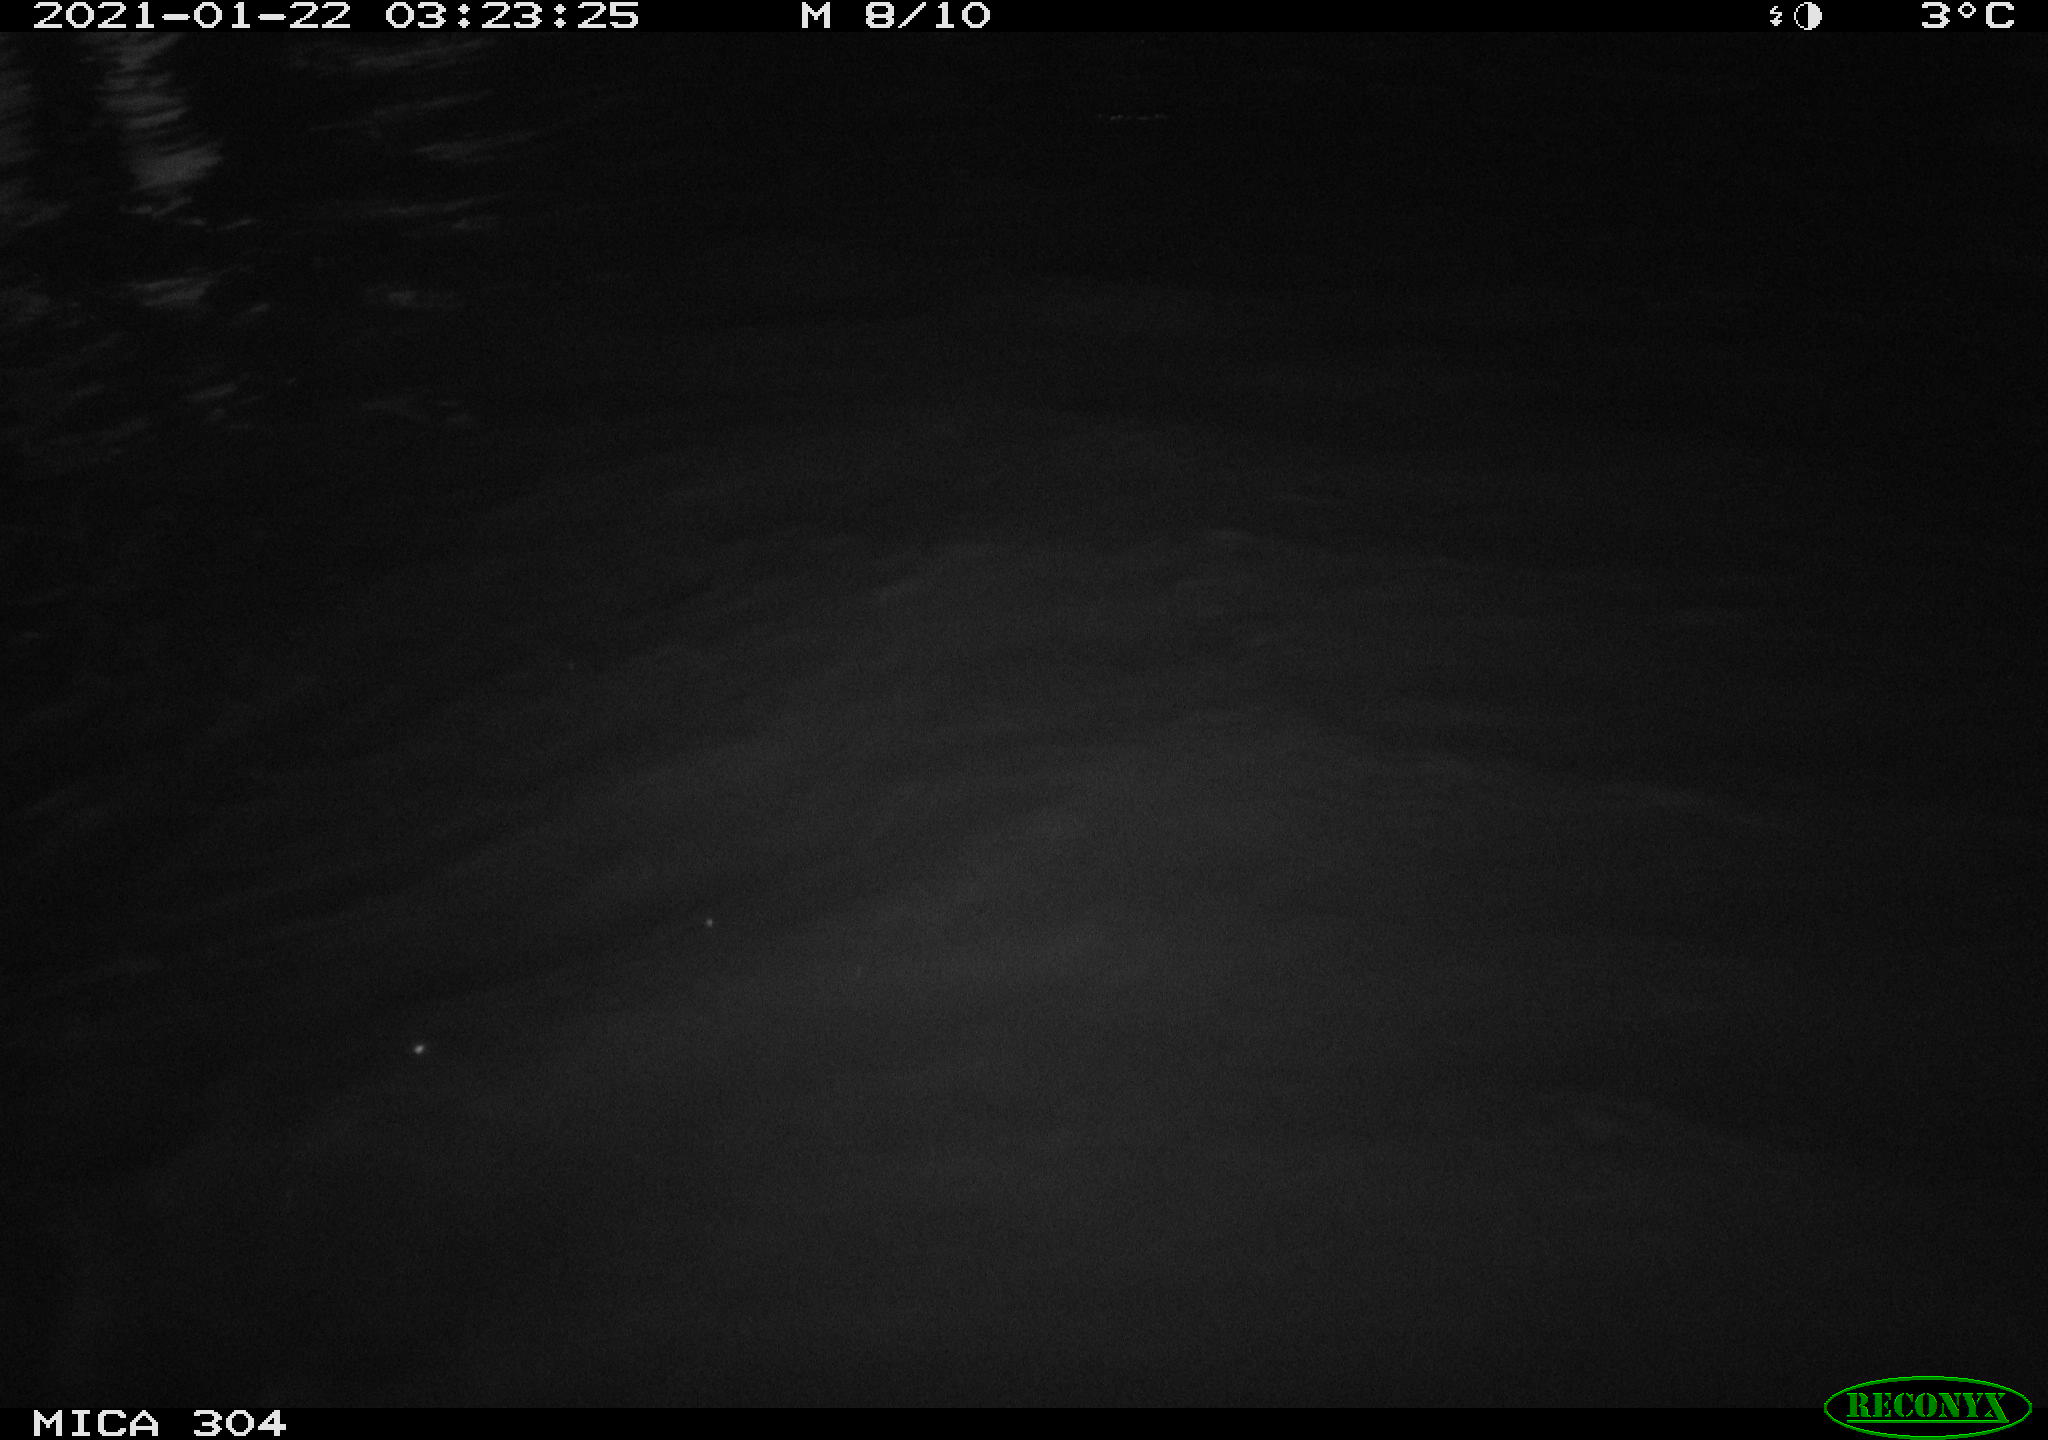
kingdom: Animalia
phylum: Chordata
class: Mammalia
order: Rodentia
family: Cricetidae
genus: Ondatra
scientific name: Ondatra zibethicus
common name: Muskrat
